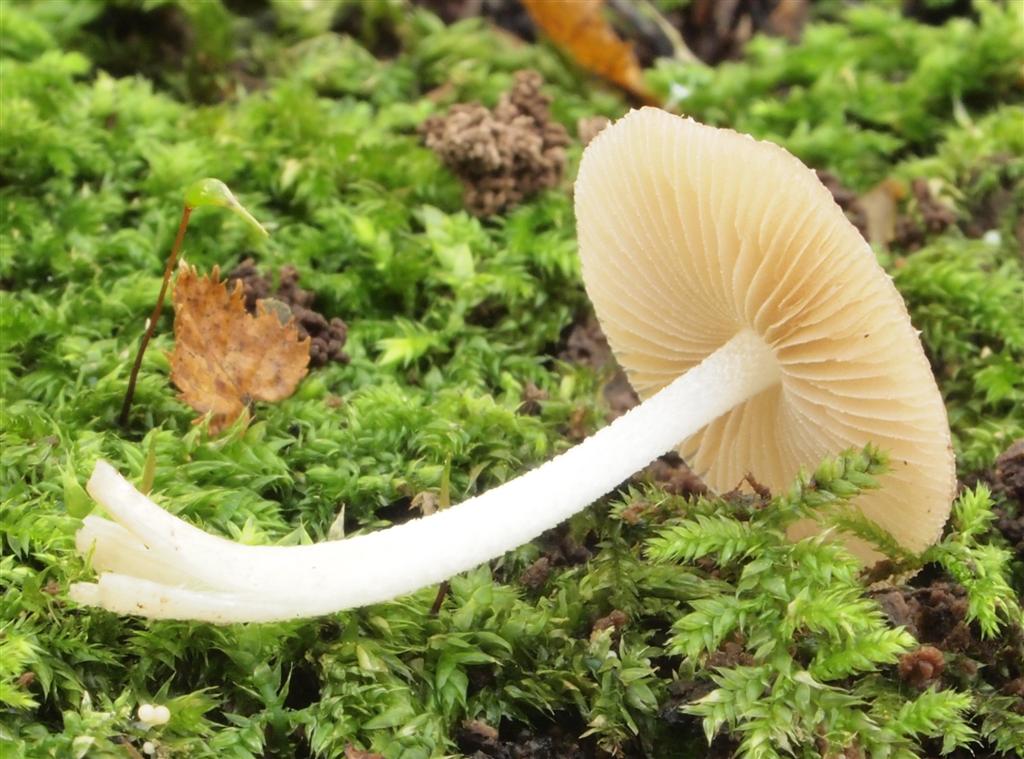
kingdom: Fungi
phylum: Basidiomycota
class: Agaricomycetes
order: Agaricales
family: Bolbitiaceae
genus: Bolbitius
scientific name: Bolbitius reticulatus
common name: Netted fieldcap
